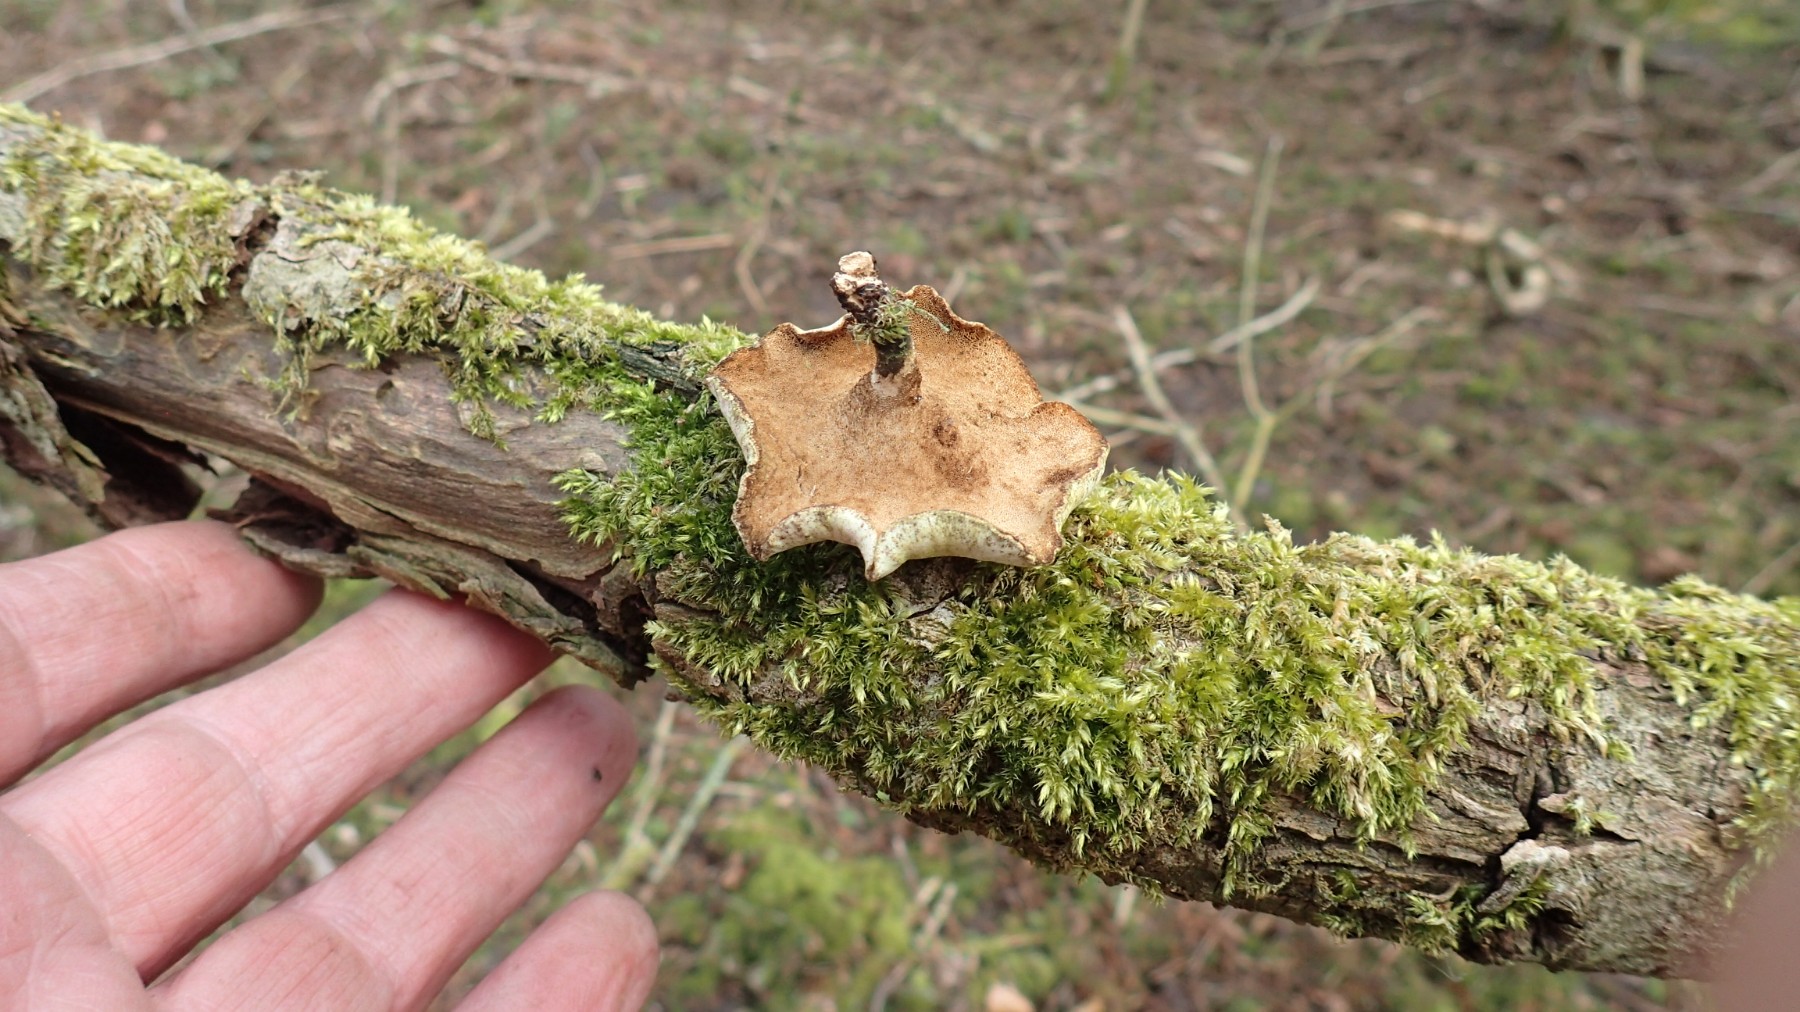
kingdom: Fungi
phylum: Basidiomycota
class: Agaricomycetes
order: Polyporales
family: Polyporaceae
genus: Cerioporus
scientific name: Cerioporus varius
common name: foranderlig stilkporesvamp
